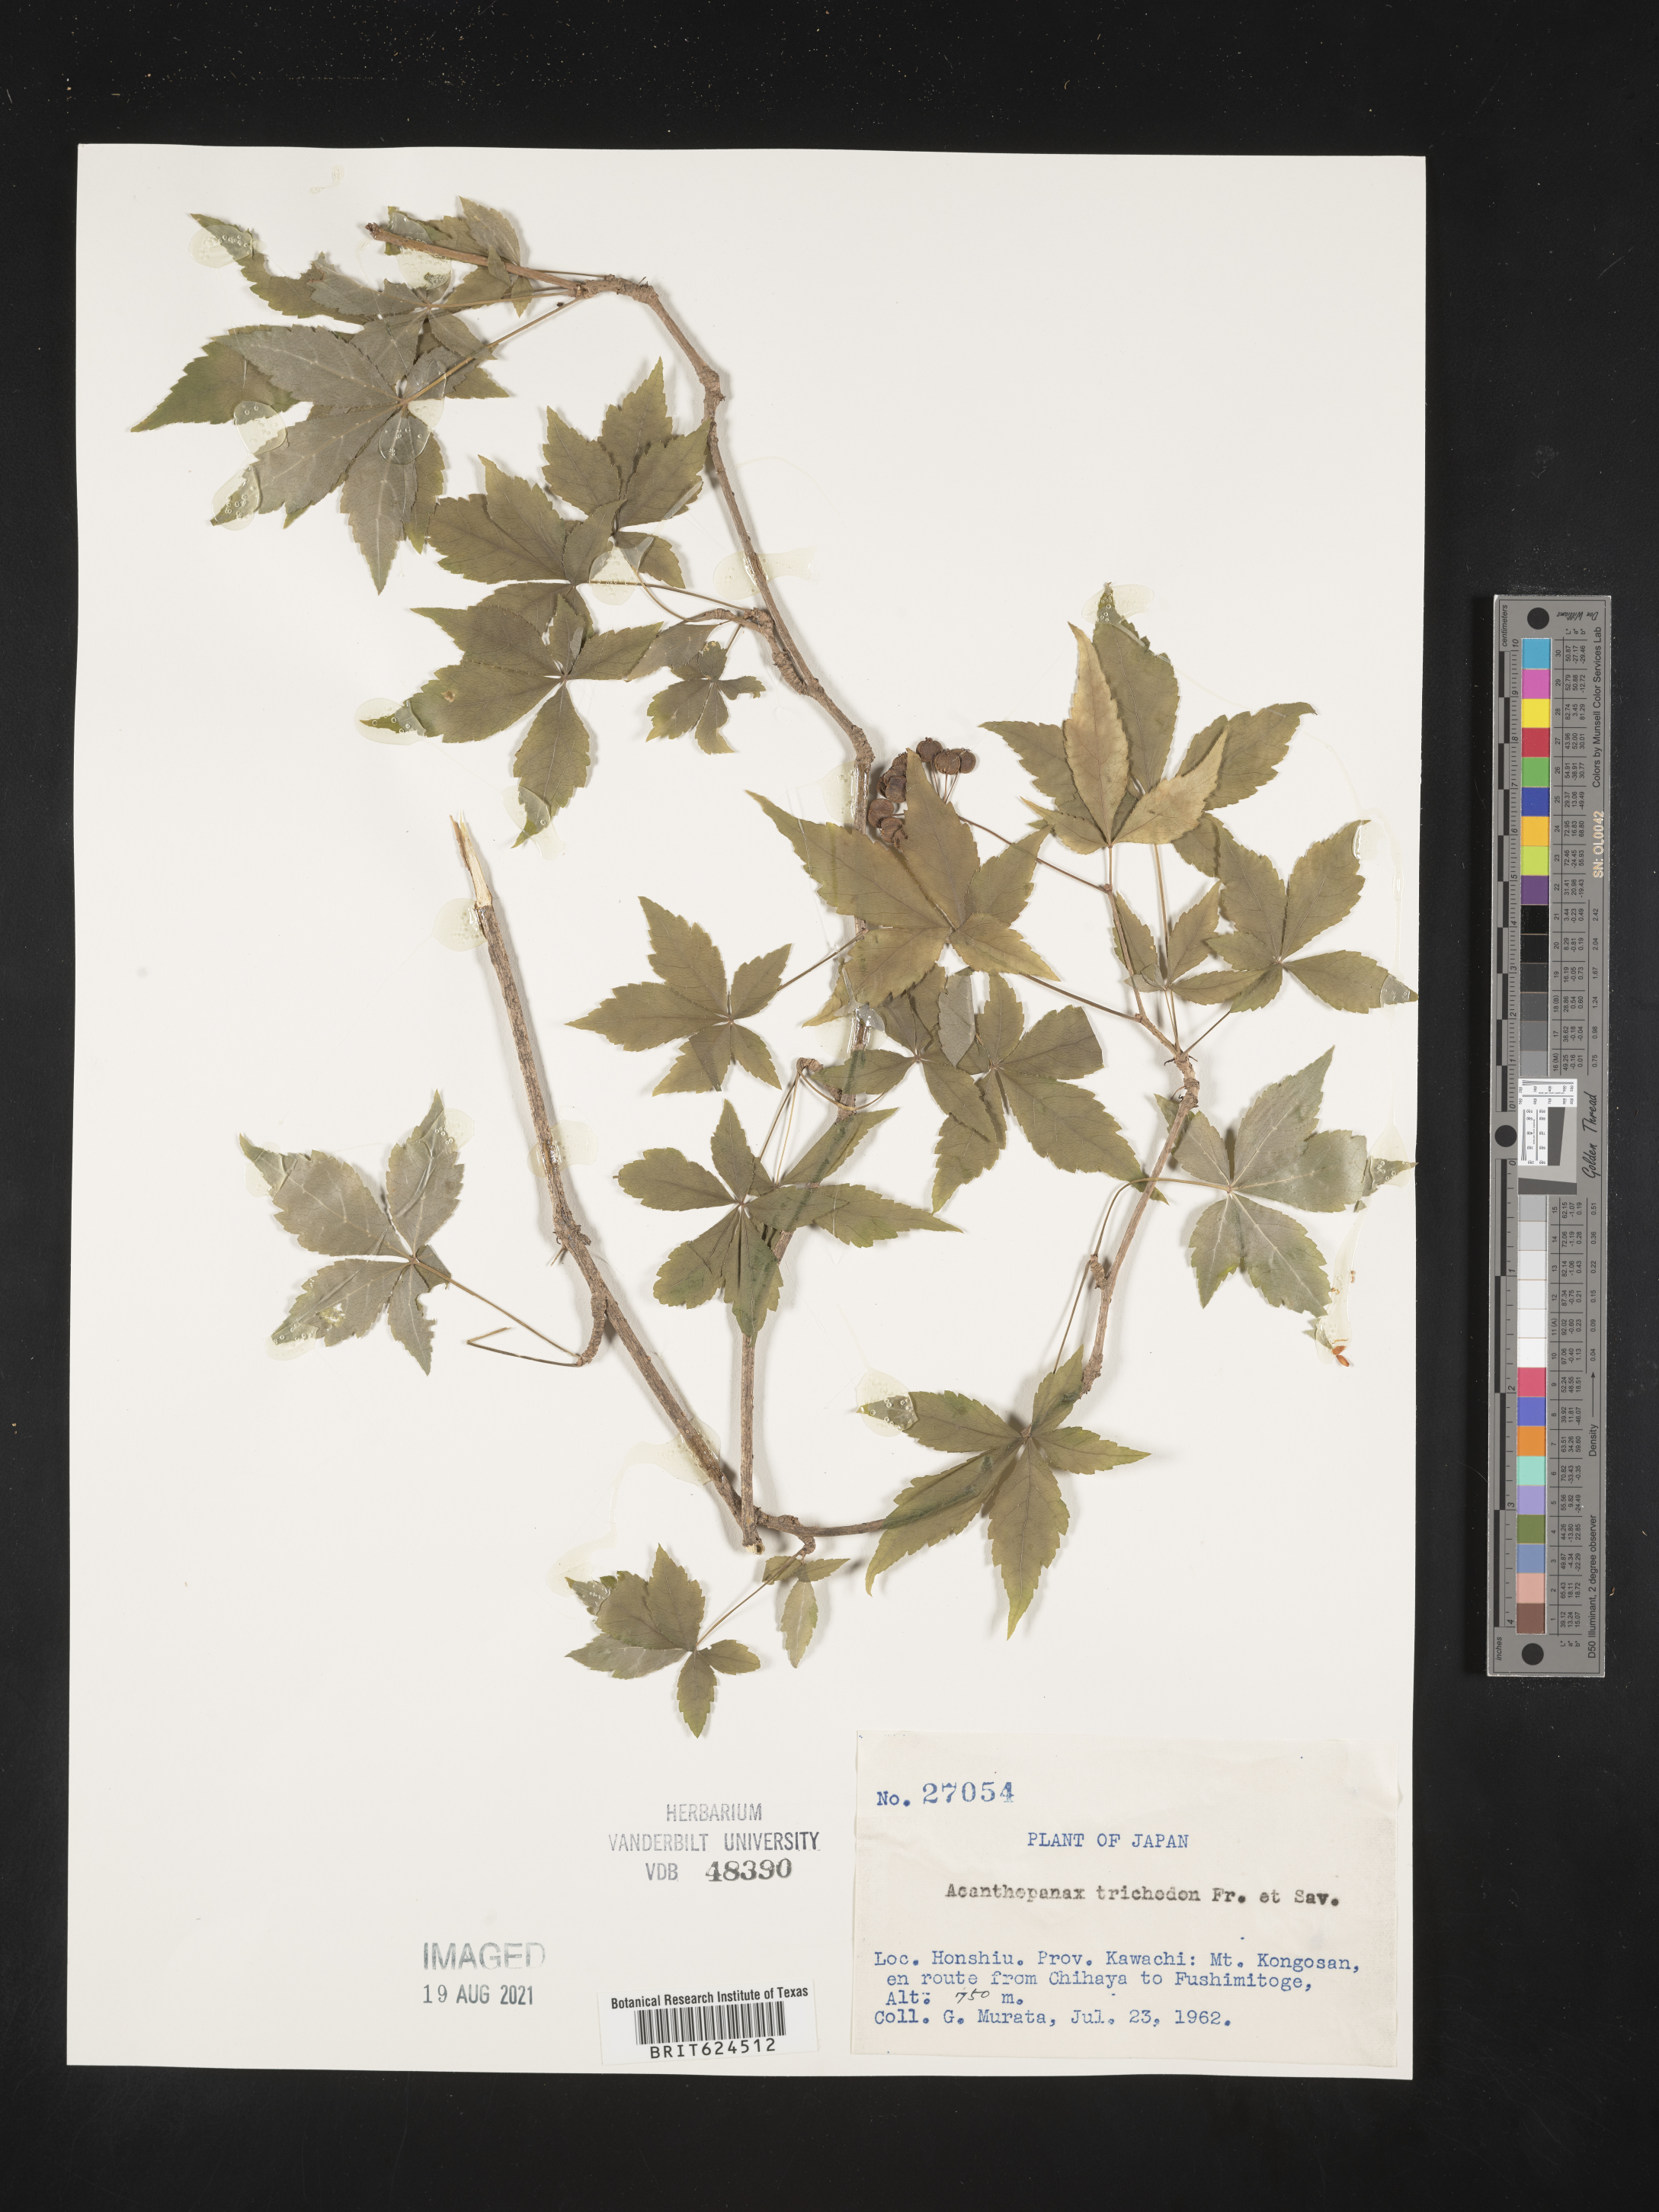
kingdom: Plantae
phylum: Tracheophyta
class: Magnoliopsida
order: Apiales
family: Araliaceae
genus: Eleutherococcus
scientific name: Eleutherococcus trichodon
